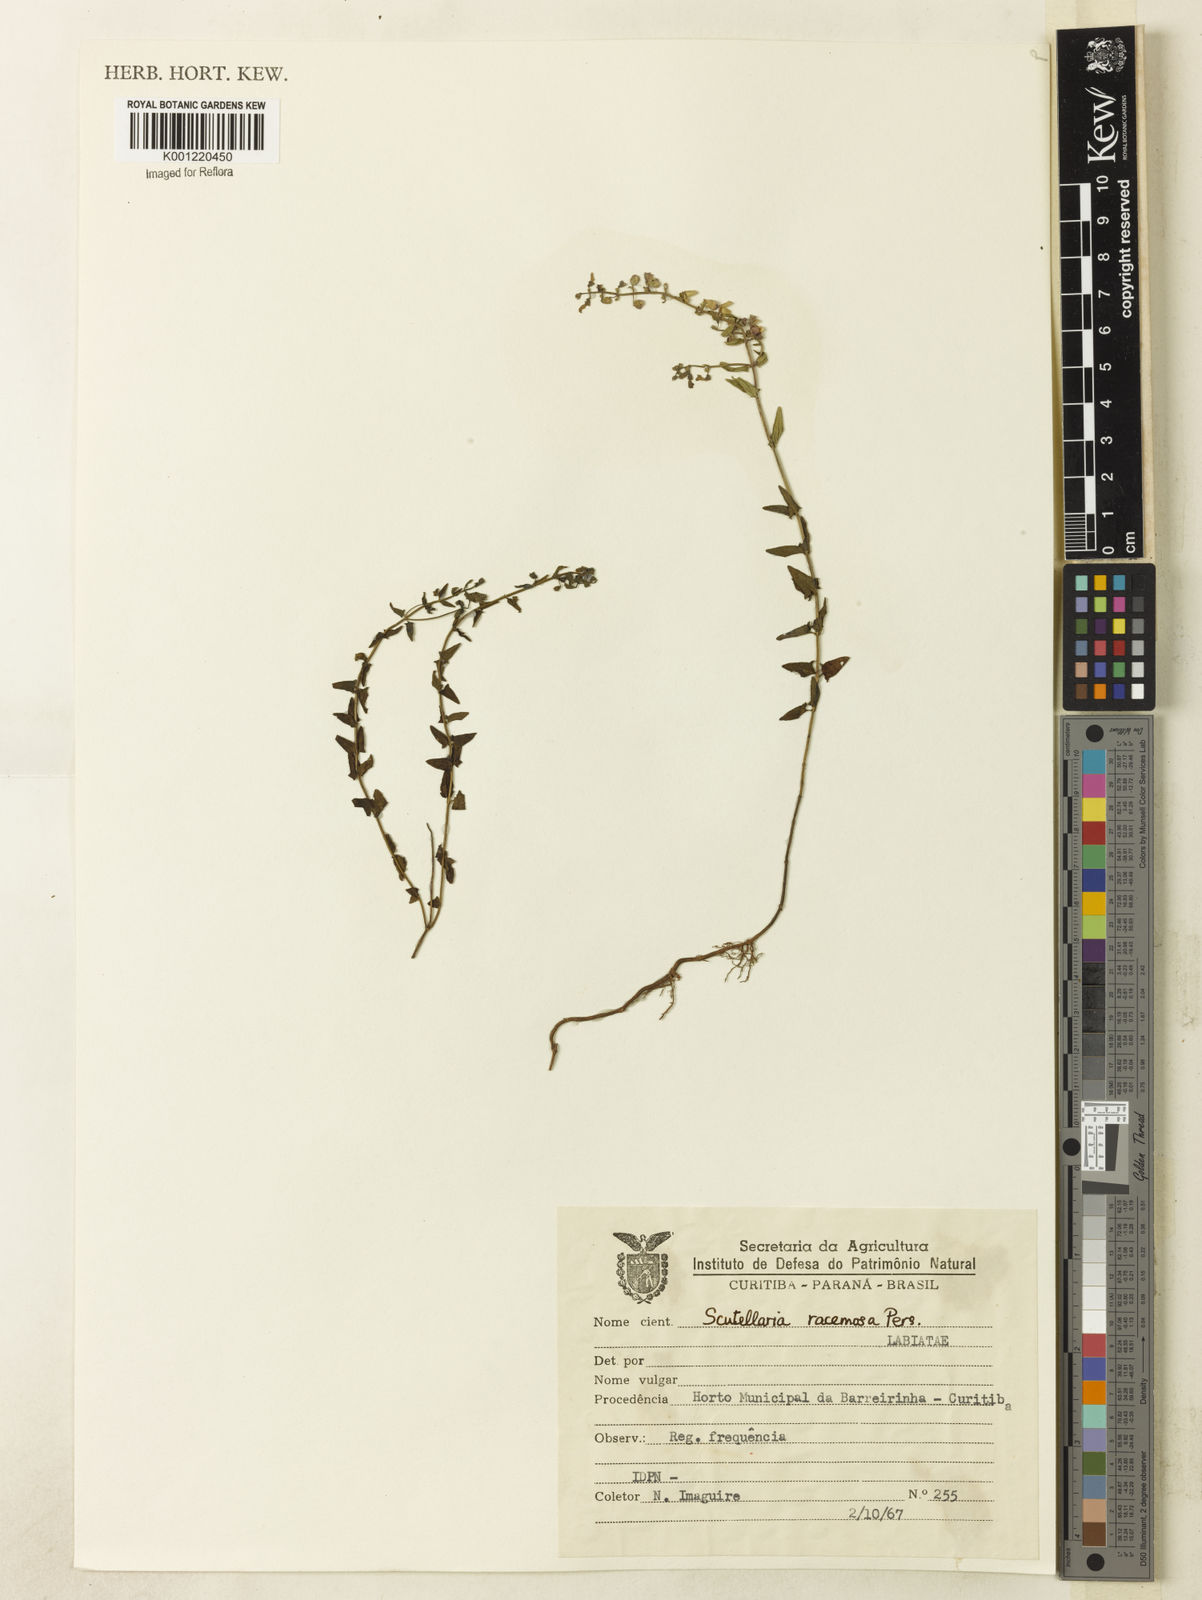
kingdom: Plantae
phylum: Tracheophyta
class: Magnoliopsida
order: Lamiales
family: Lamiaceae
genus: Scutellaria
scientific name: Scutellaria racemosa
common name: South american skullcap
